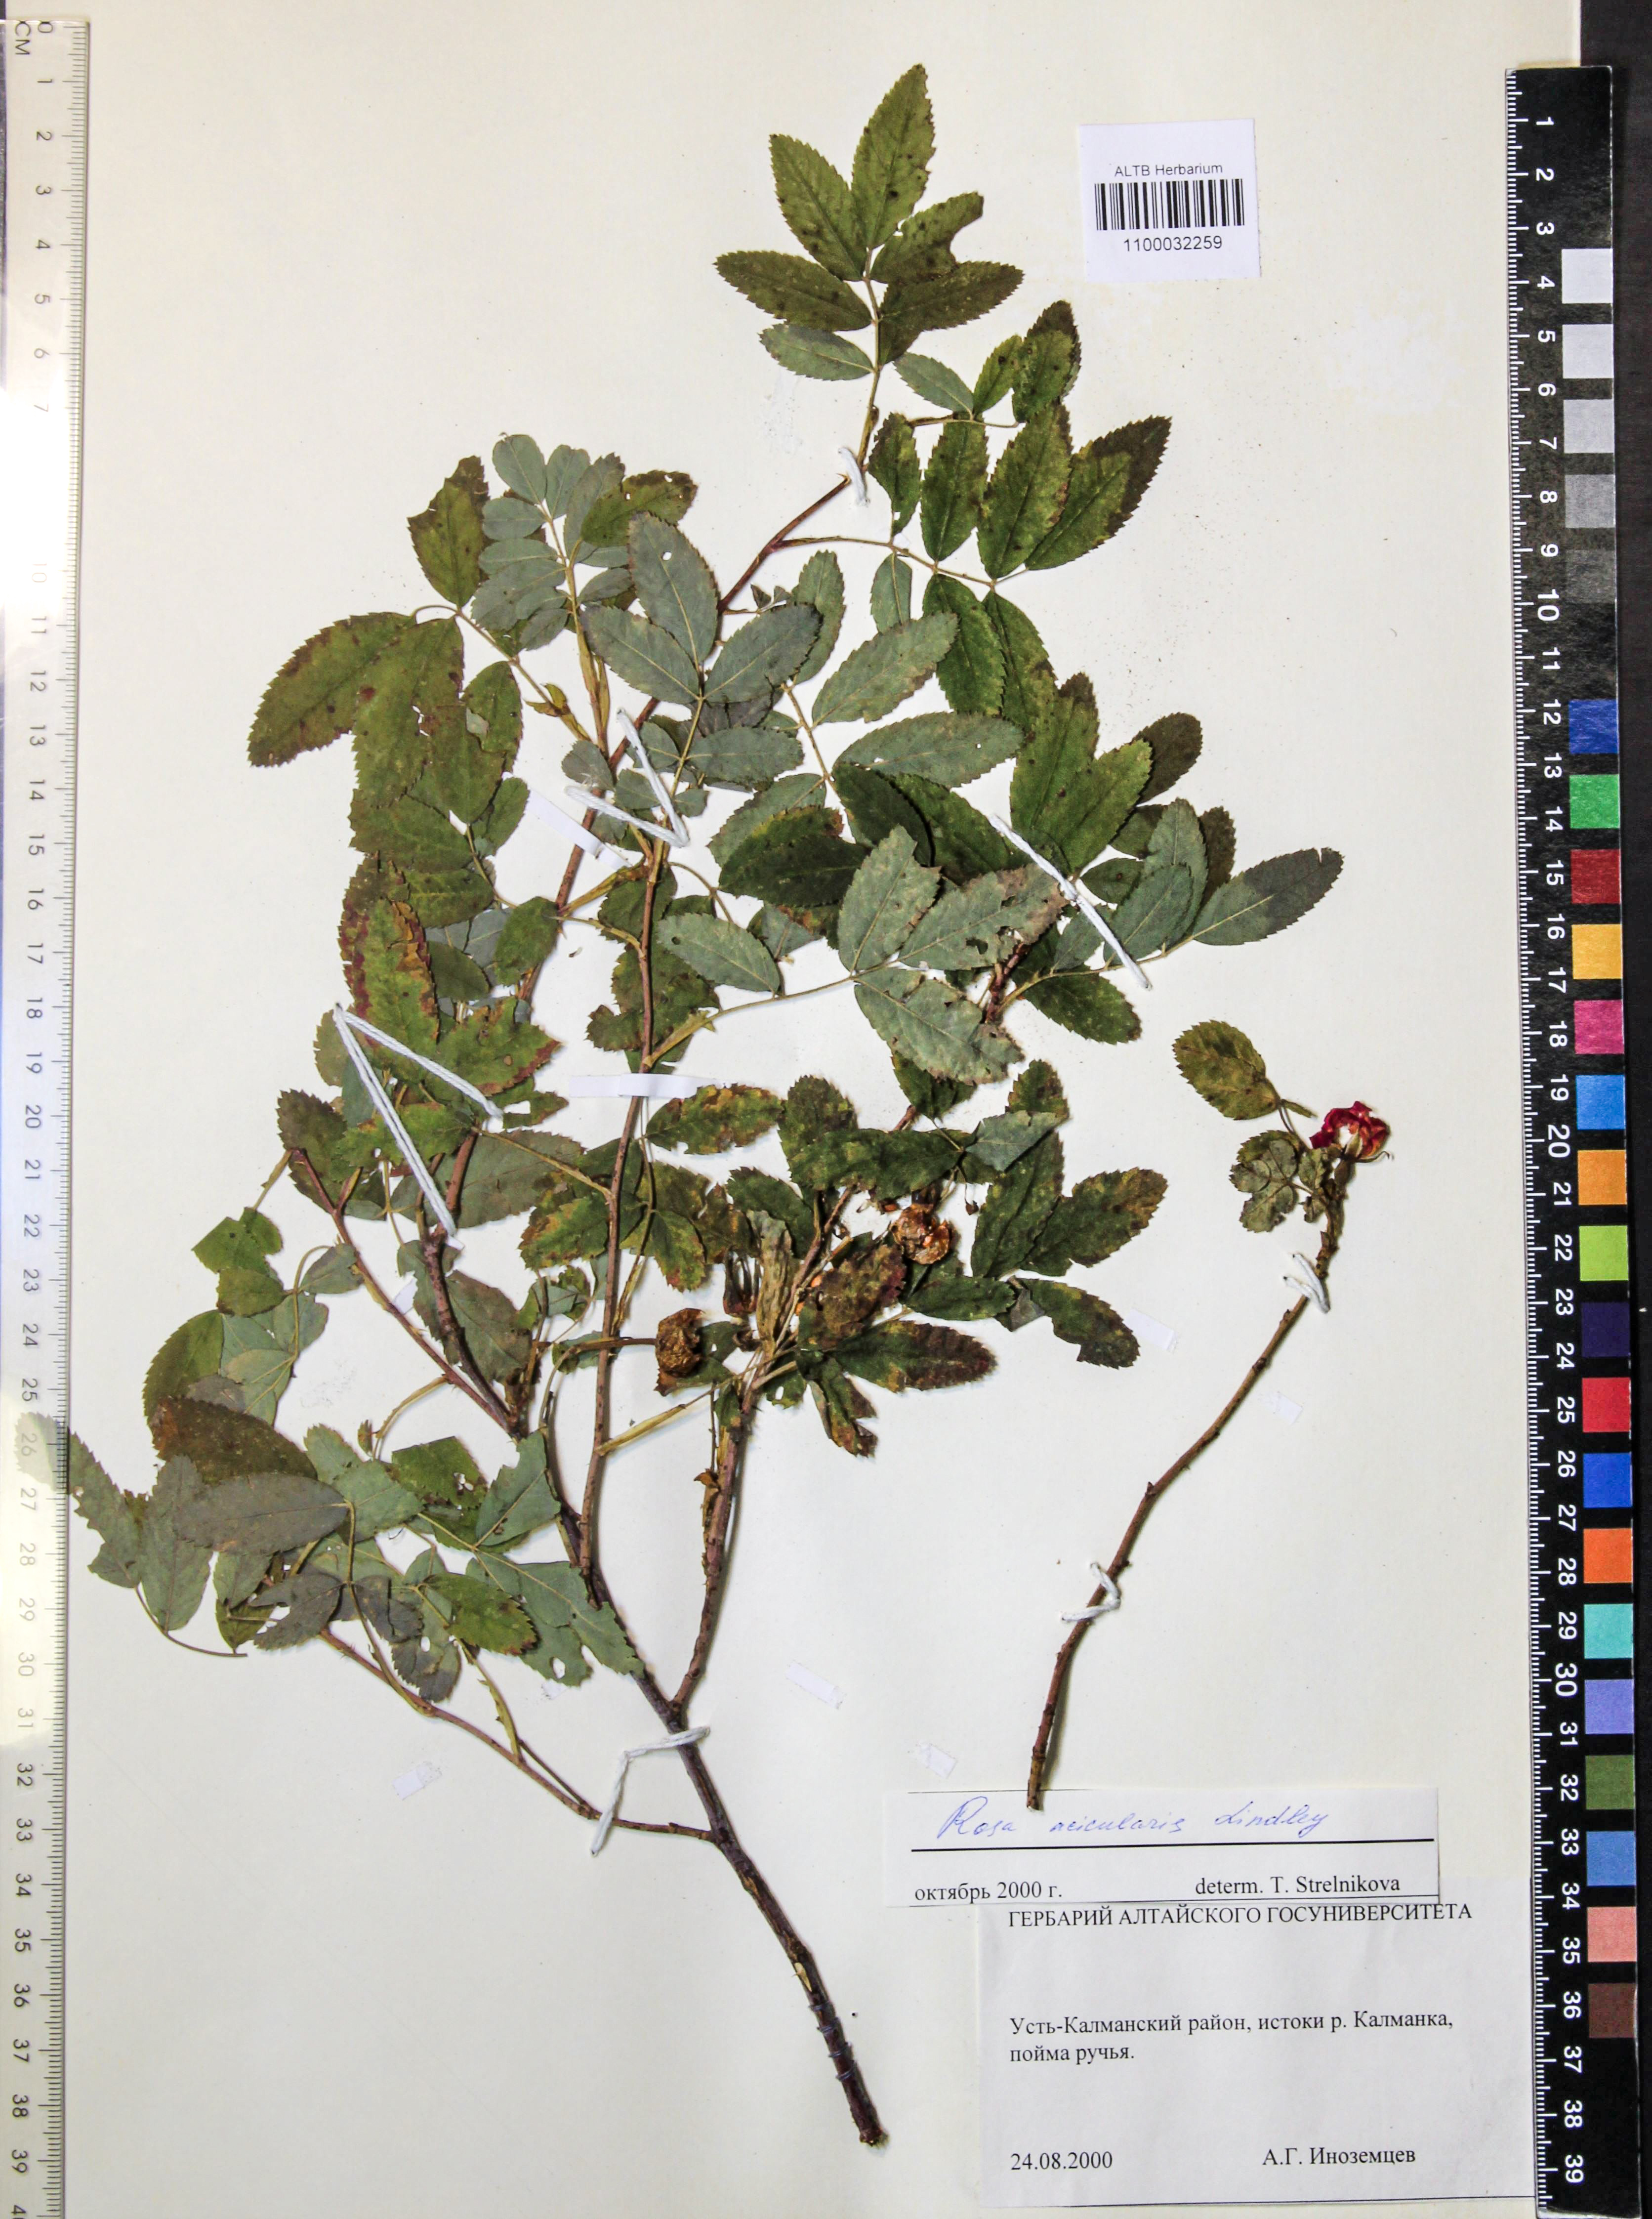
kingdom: Plantae
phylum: Tracheophyta
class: Magnoliopsida
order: Rosales
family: Rosaceae
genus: Rosa
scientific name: Rosa acicularis
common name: Prickly rose
